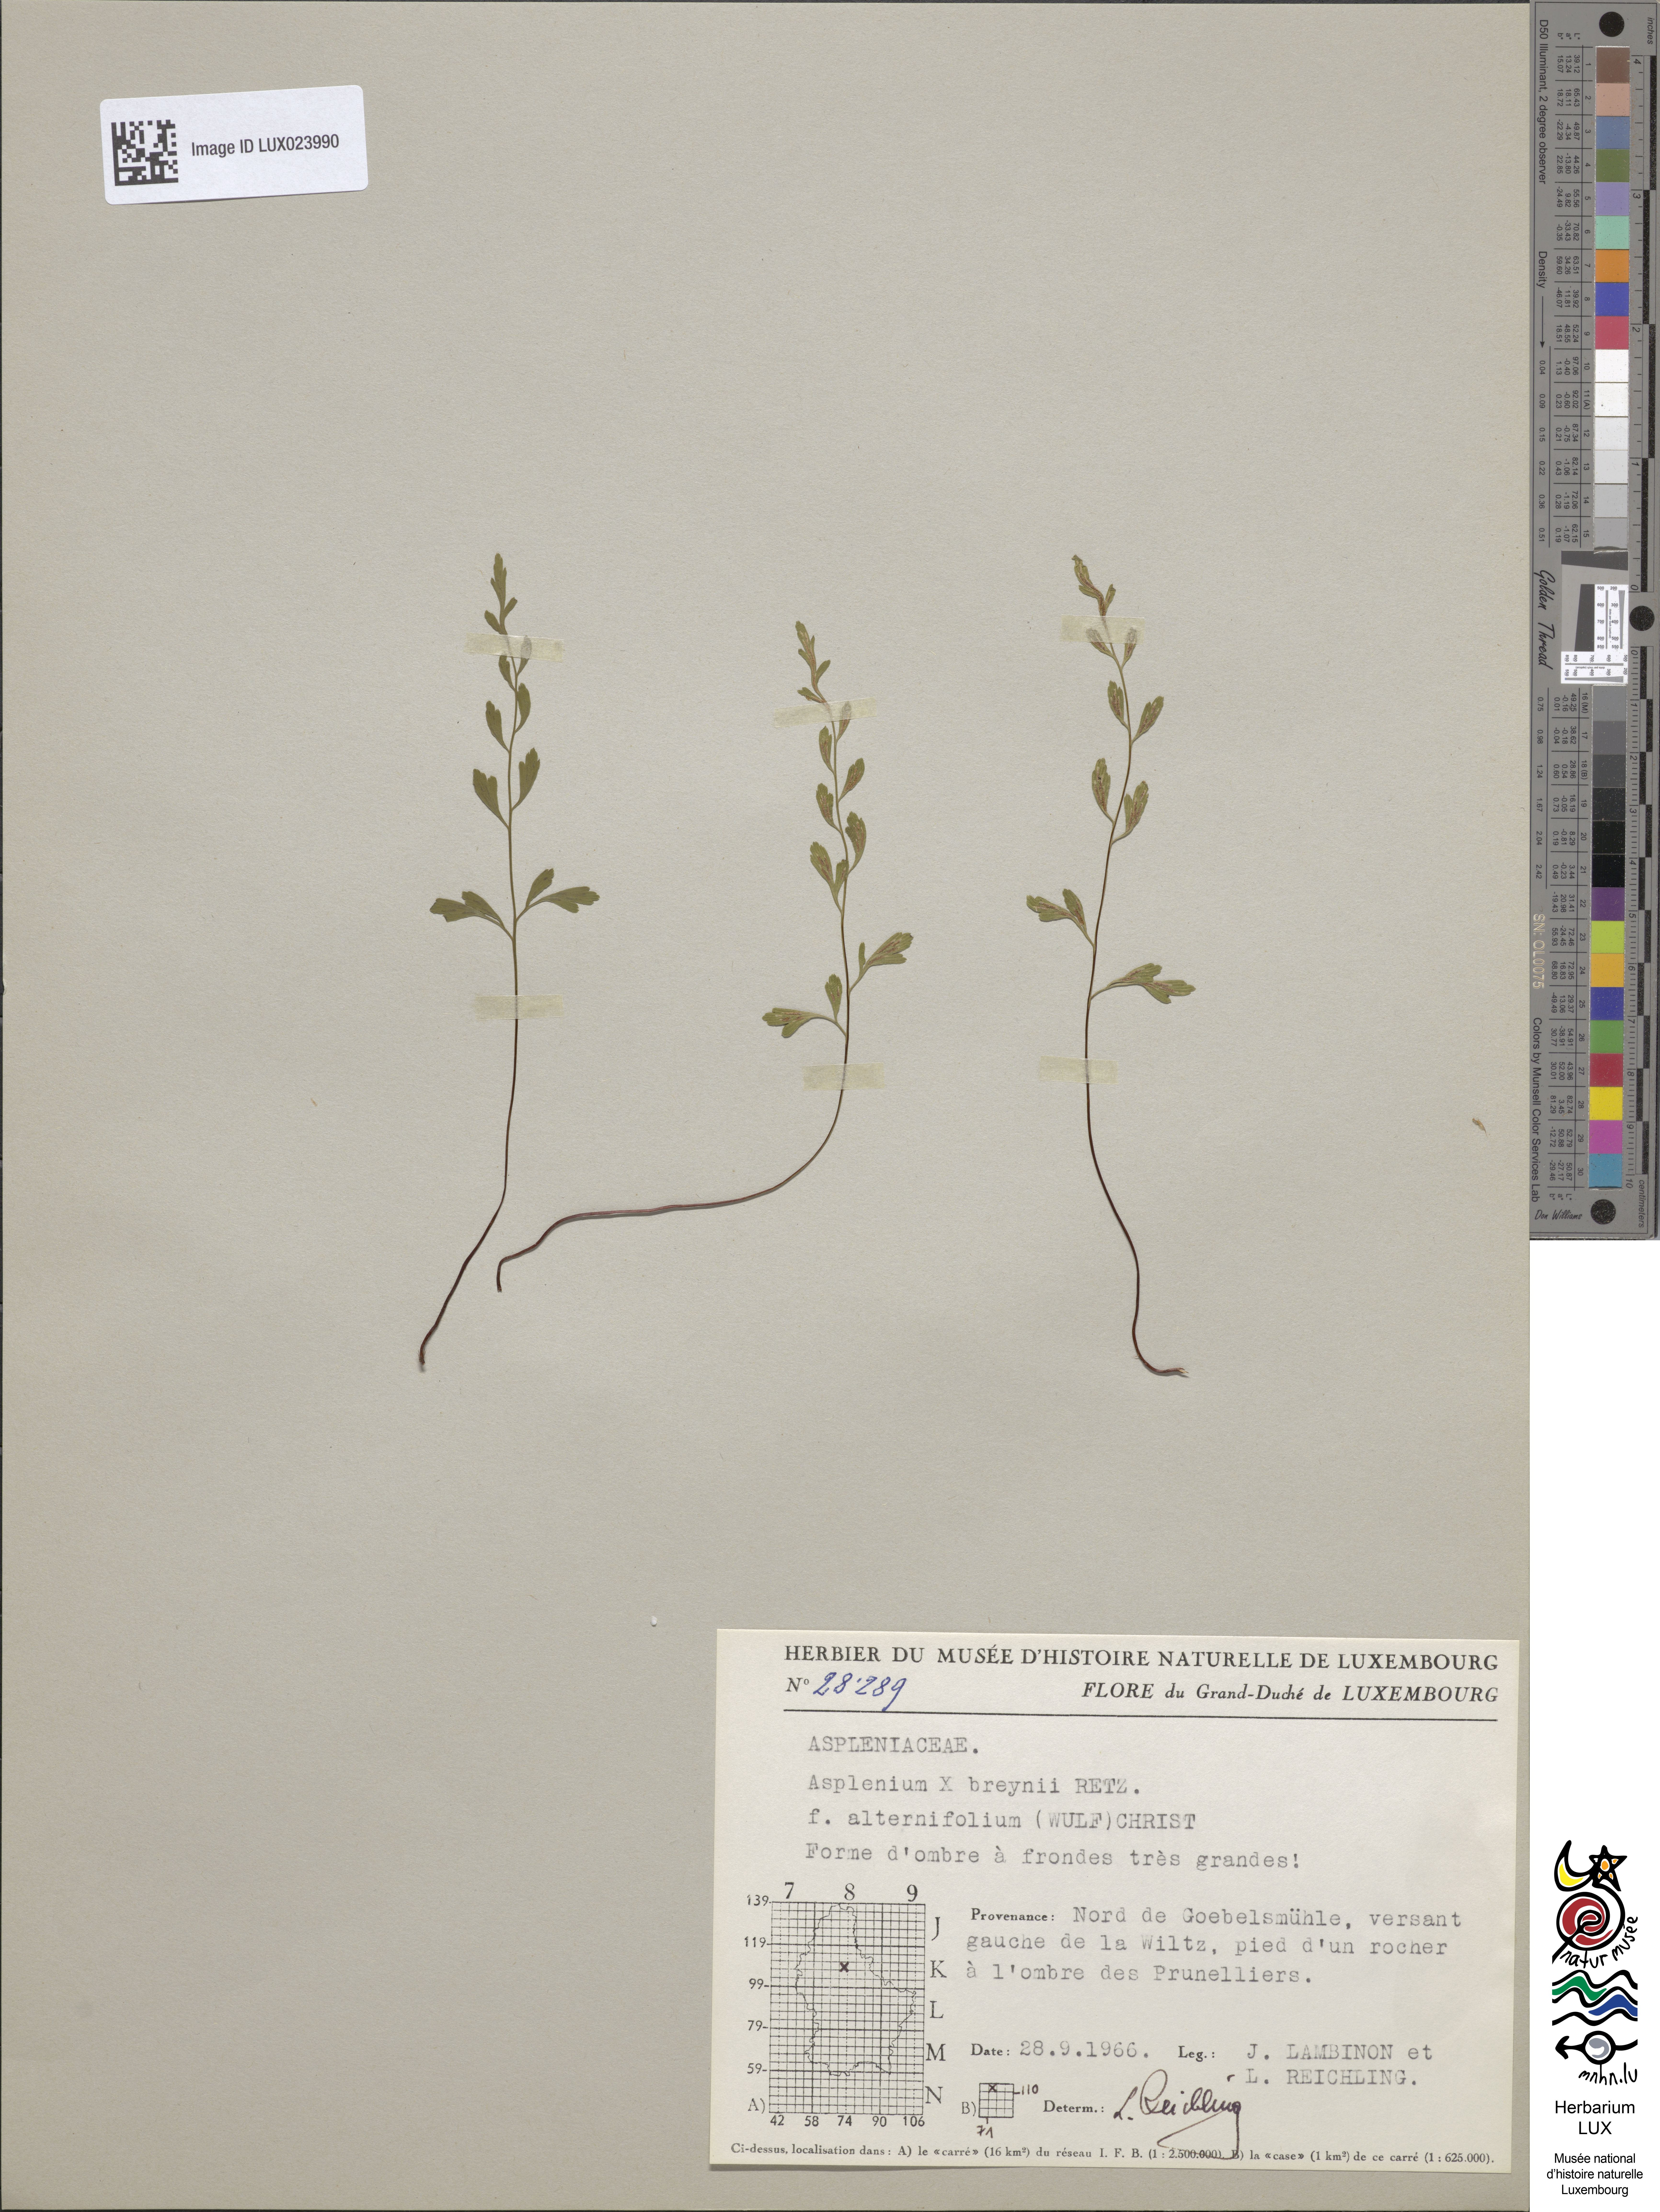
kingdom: Plantae
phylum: Tracheophyta
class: Polypodiopsida
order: Polypodiales
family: Aspleniaceae
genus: Asplenium
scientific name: Asplenium alternifolium
